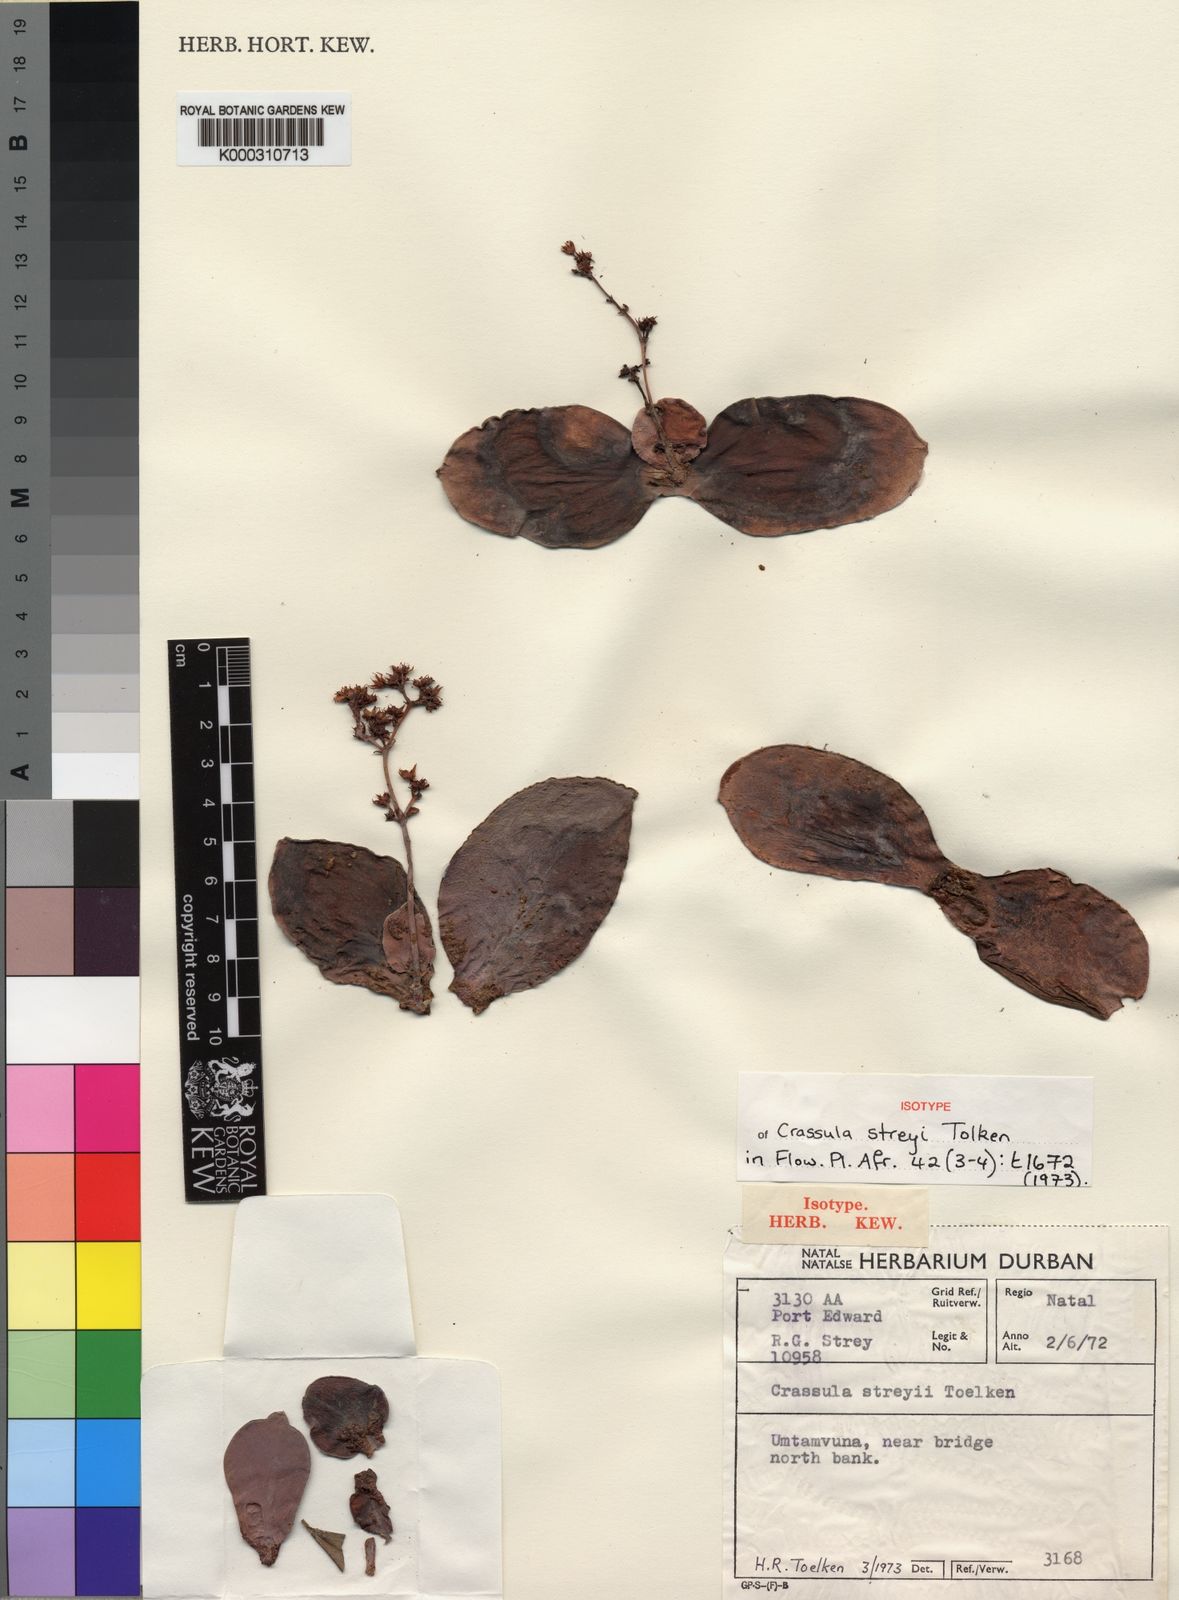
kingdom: Plantae
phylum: Tracheophyta
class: Magnoliopsida
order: Saxifragales
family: Crassulaceae
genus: Crassula
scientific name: Crassula streyi
